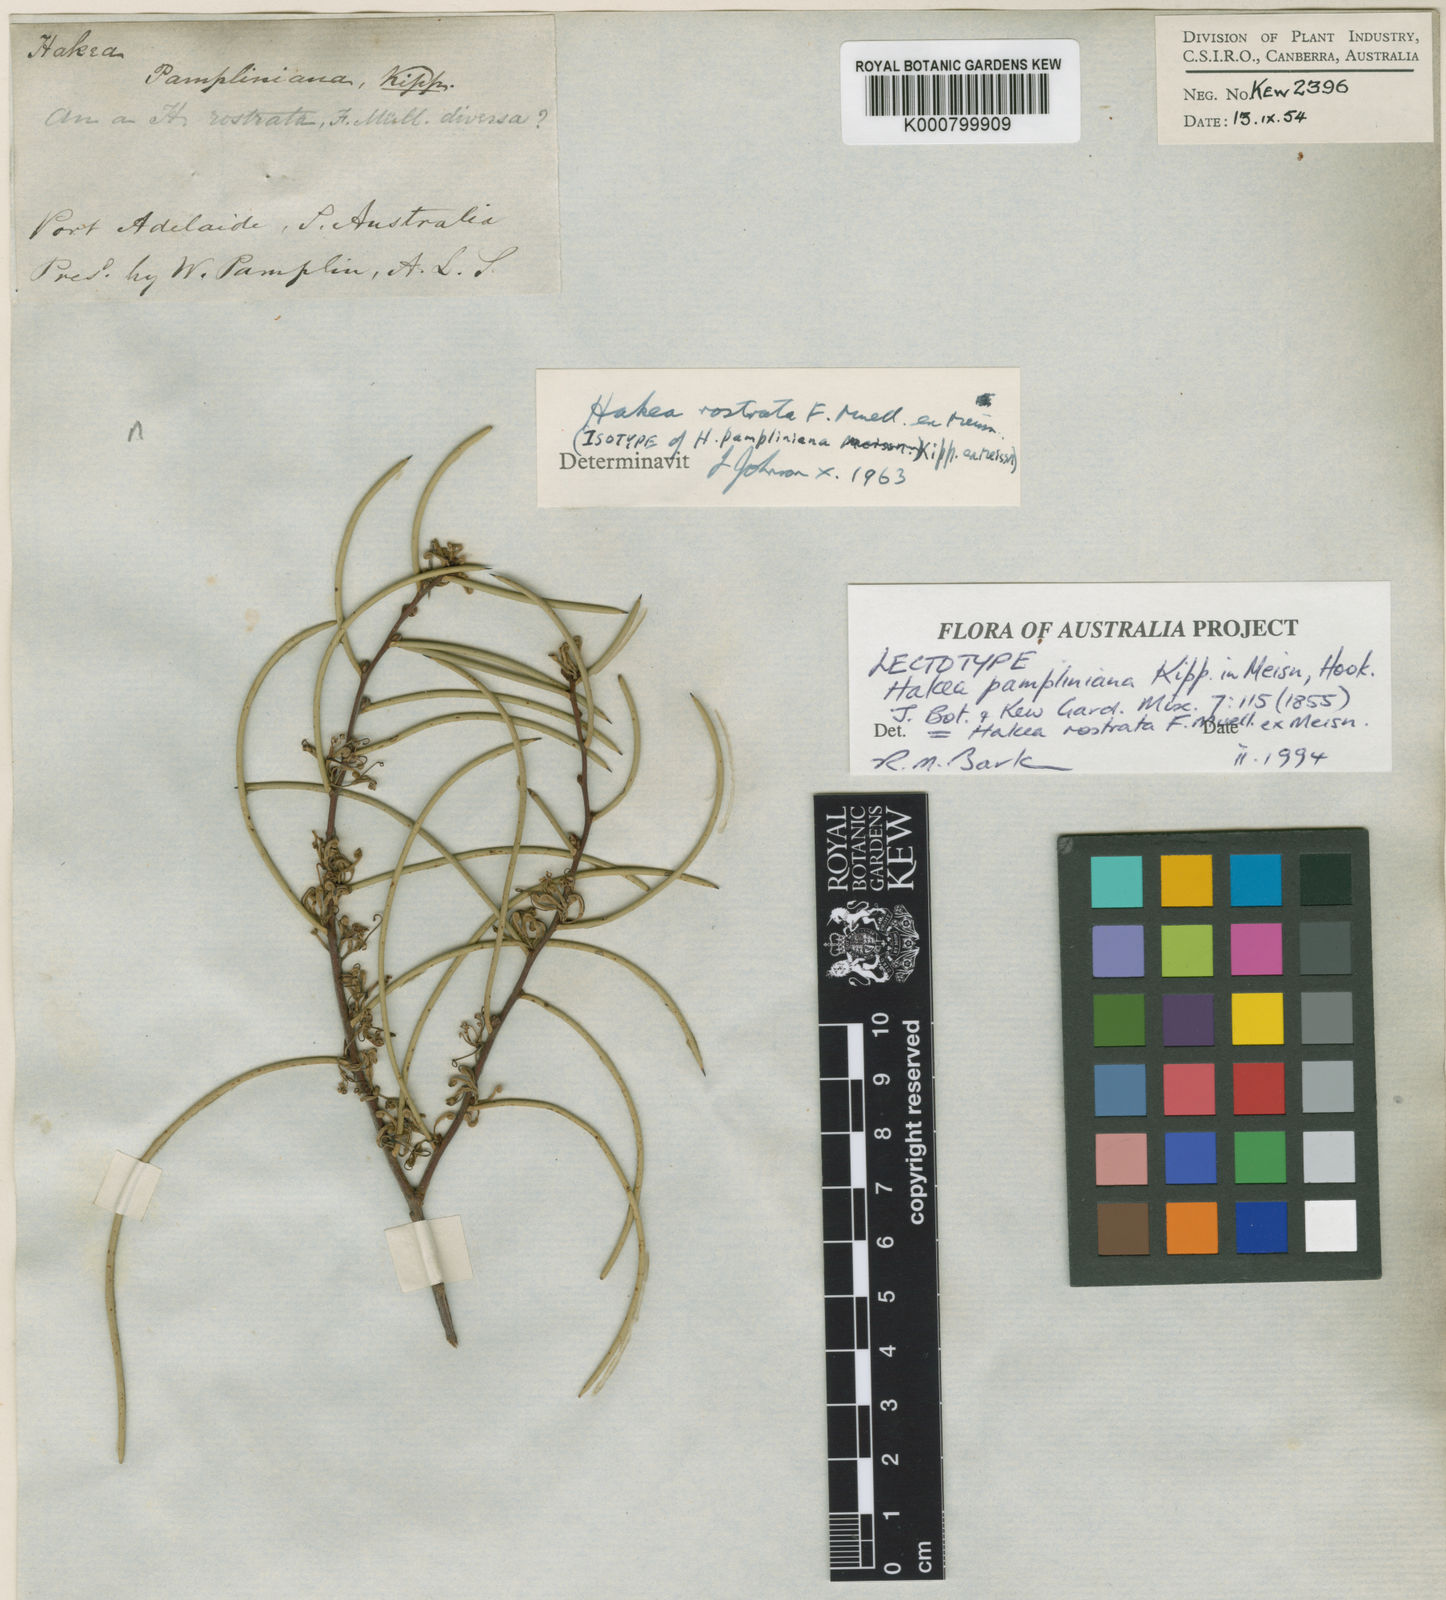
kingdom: Plantae
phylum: Tracheophyta
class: Magnoliopsida
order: Proteales
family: Proteaceae
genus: Hakea
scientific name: Hakea rostrata
